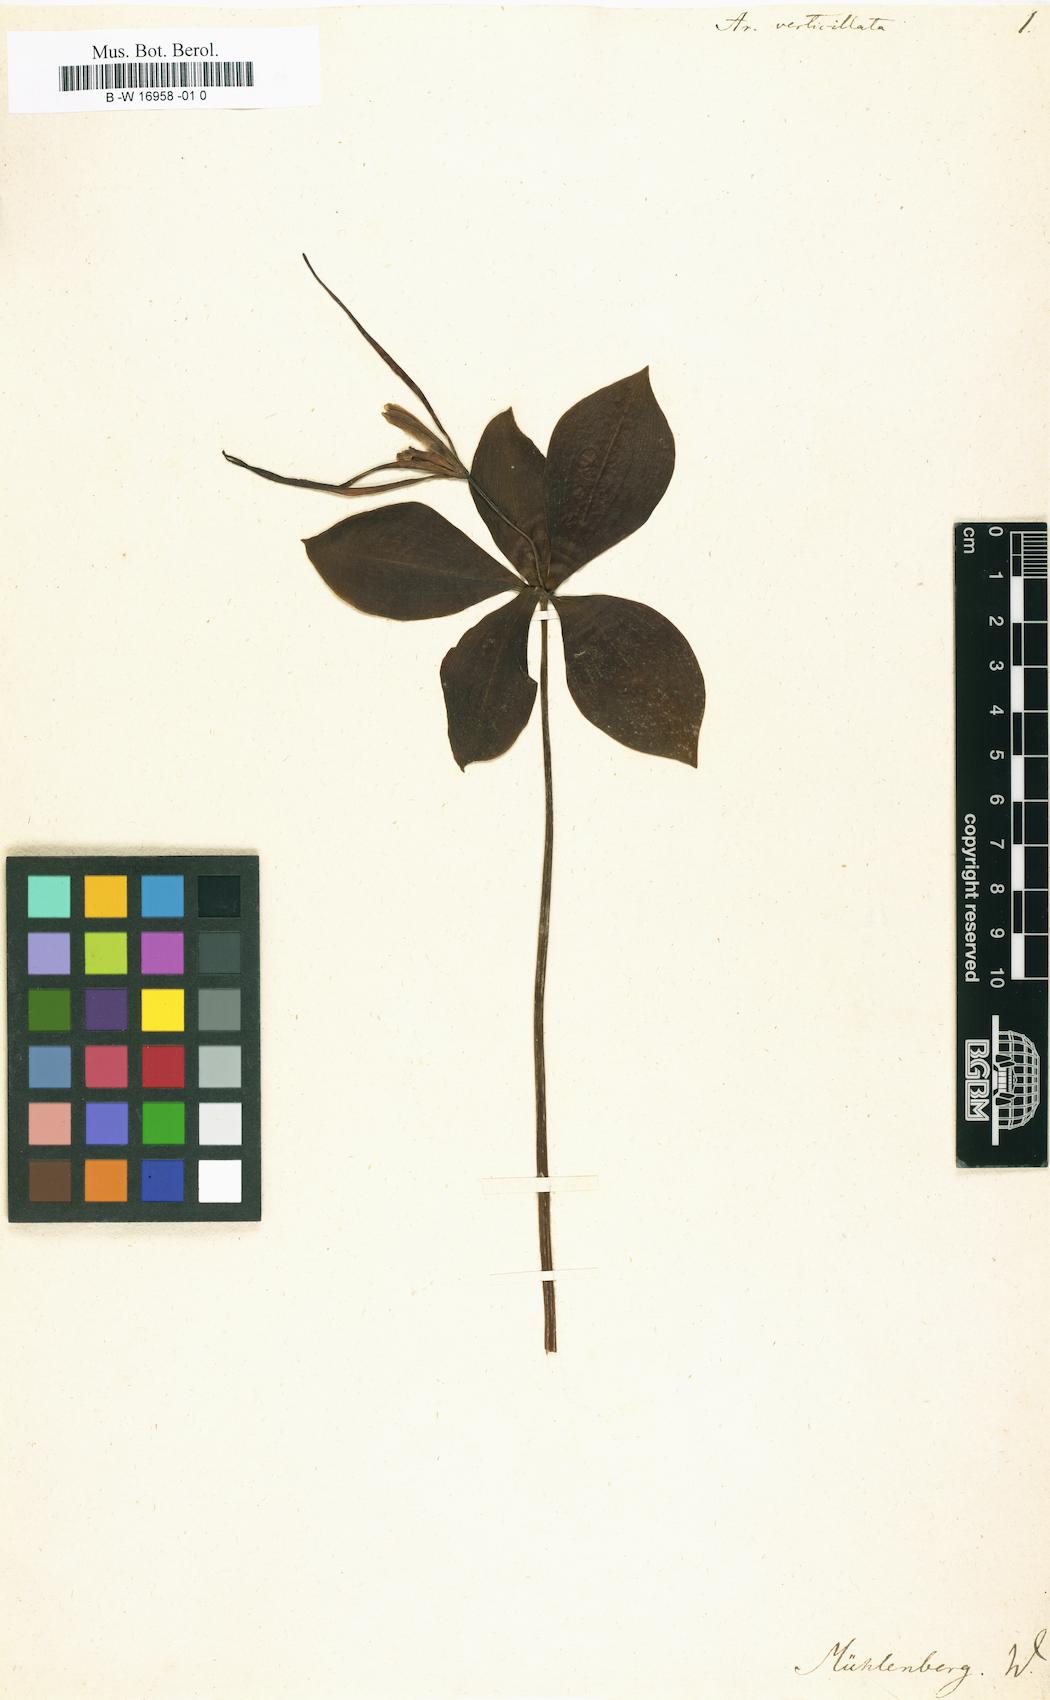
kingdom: Plantae
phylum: Tracheophyta
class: Liliopsida
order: Asparagales
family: Orchidaceae
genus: Isotria
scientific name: Isotria verticillata
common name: Large whorled pogonia
